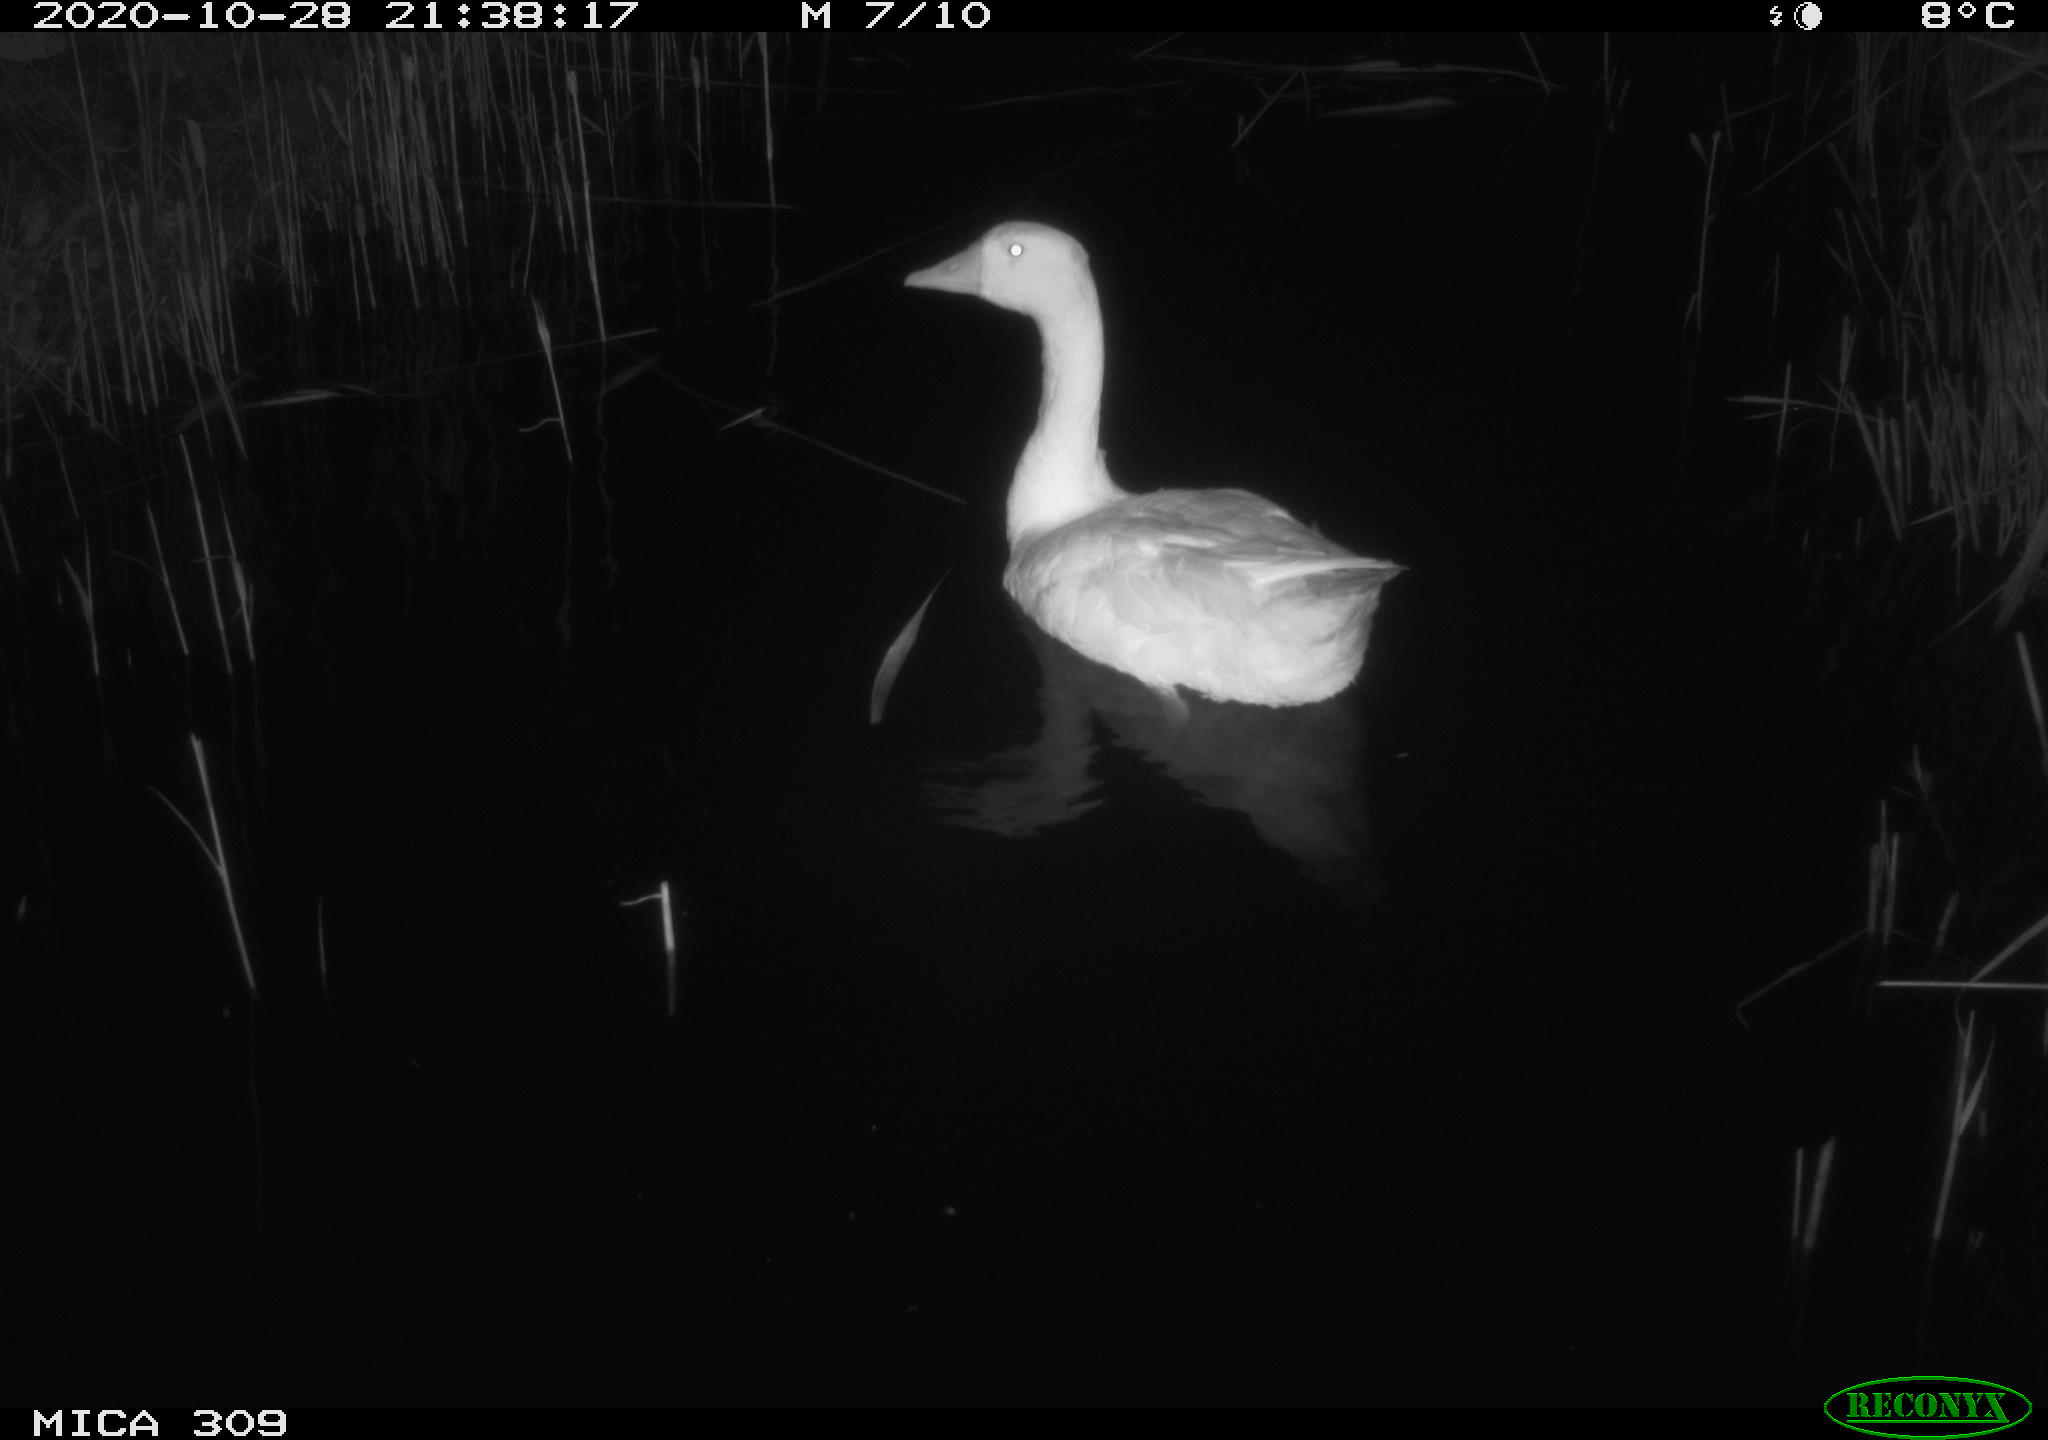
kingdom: Animalia
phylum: Chordata
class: Aves
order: Anseriformes
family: Anatidae
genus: Anser
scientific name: Anser anser
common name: Greylag goose
